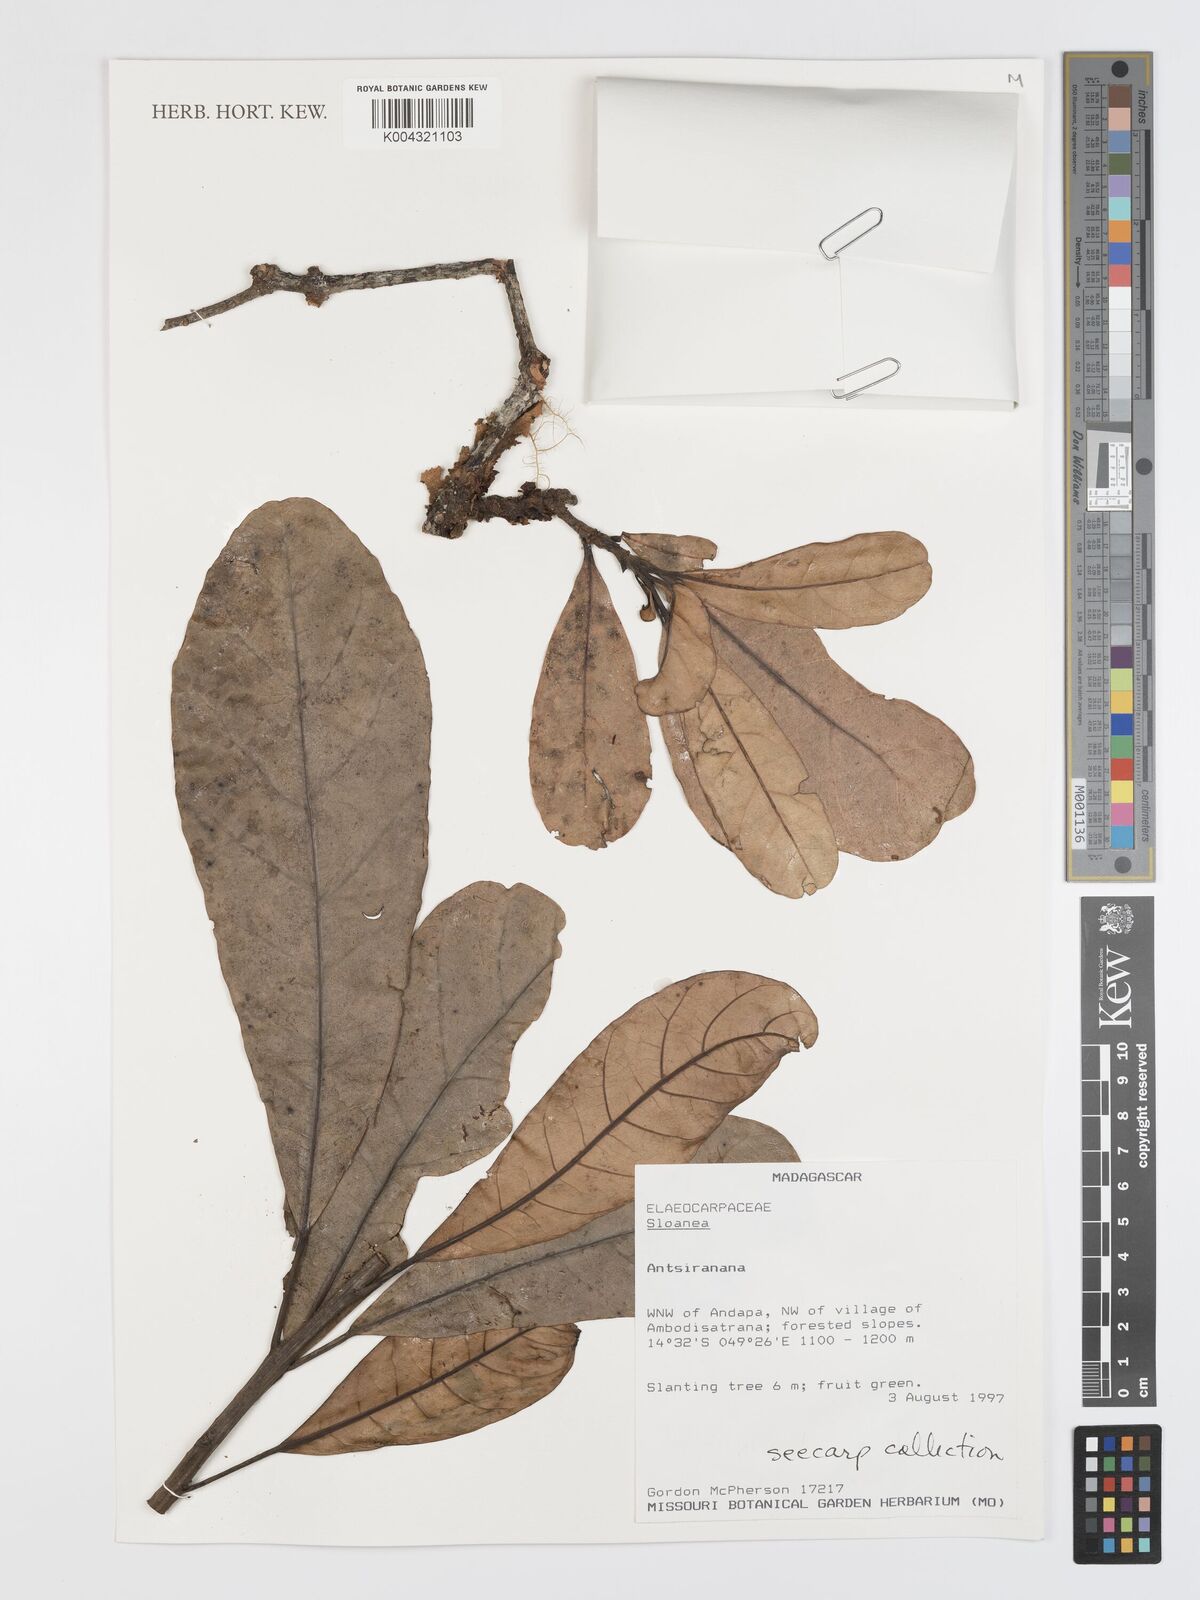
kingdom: Plantae
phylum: Tracheophyta
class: Magnoliopsida
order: Oxalidales
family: Elaeocarpaceae
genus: Sloanea
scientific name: Sloanea
